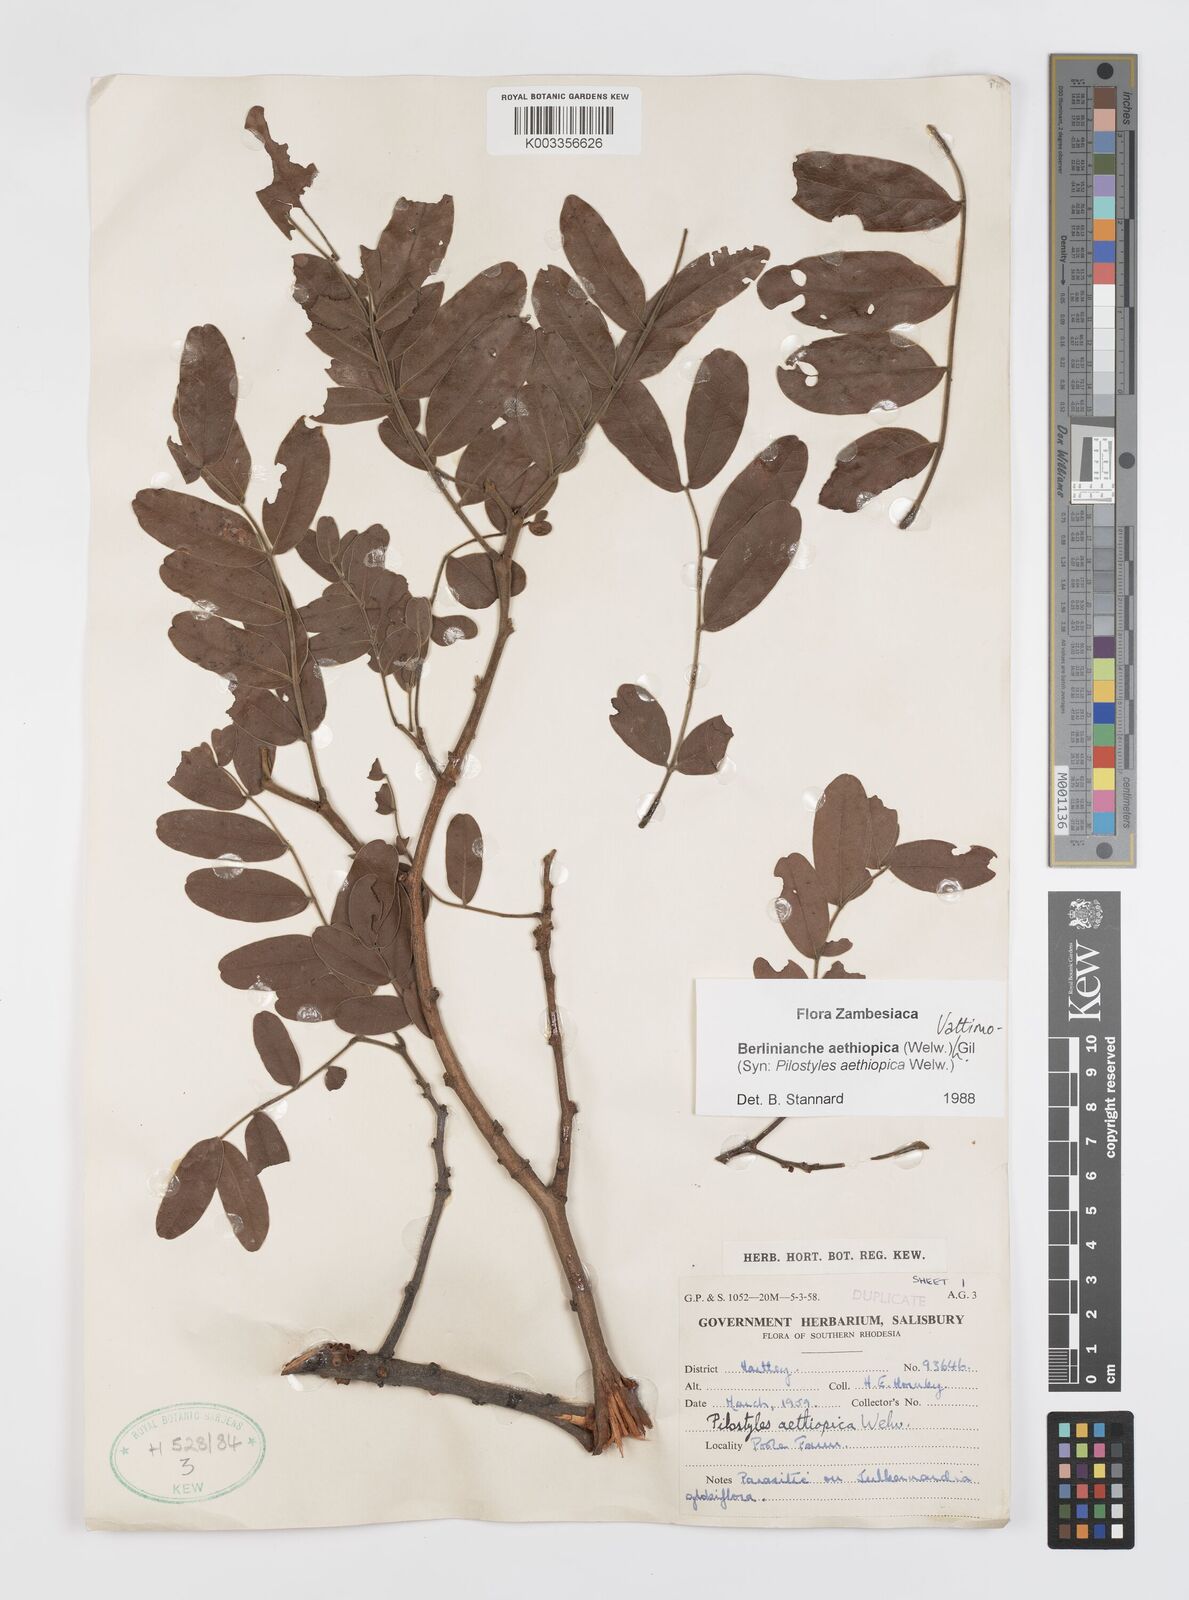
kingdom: Plantae
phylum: Tracheophyta
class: Magnoliopsida
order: Cucurbitales
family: Apodanthaceae
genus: Pilostyles
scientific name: Pilostyles aethiopica
